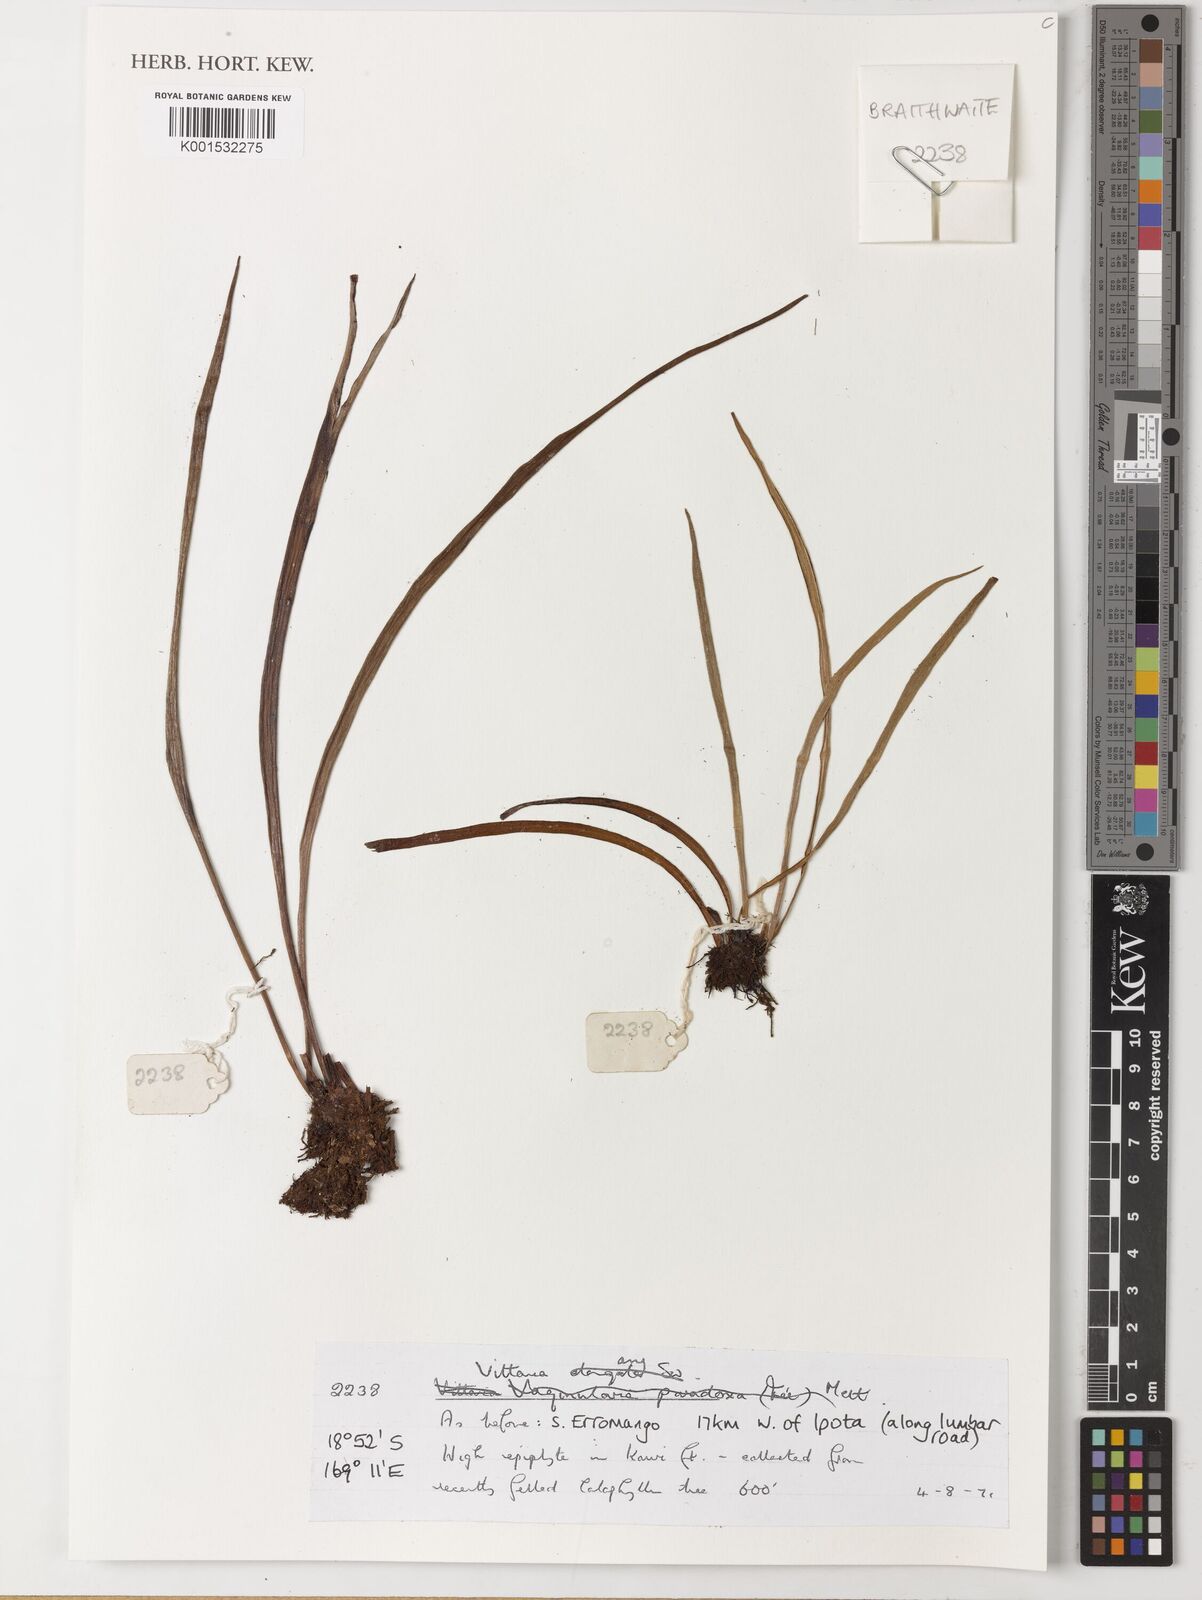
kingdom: Plantae
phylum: Tracheophyta
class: Polypodiopsida
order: Polypodiales
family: Pteridaceae
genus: Vittaria
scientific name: Vittaria
